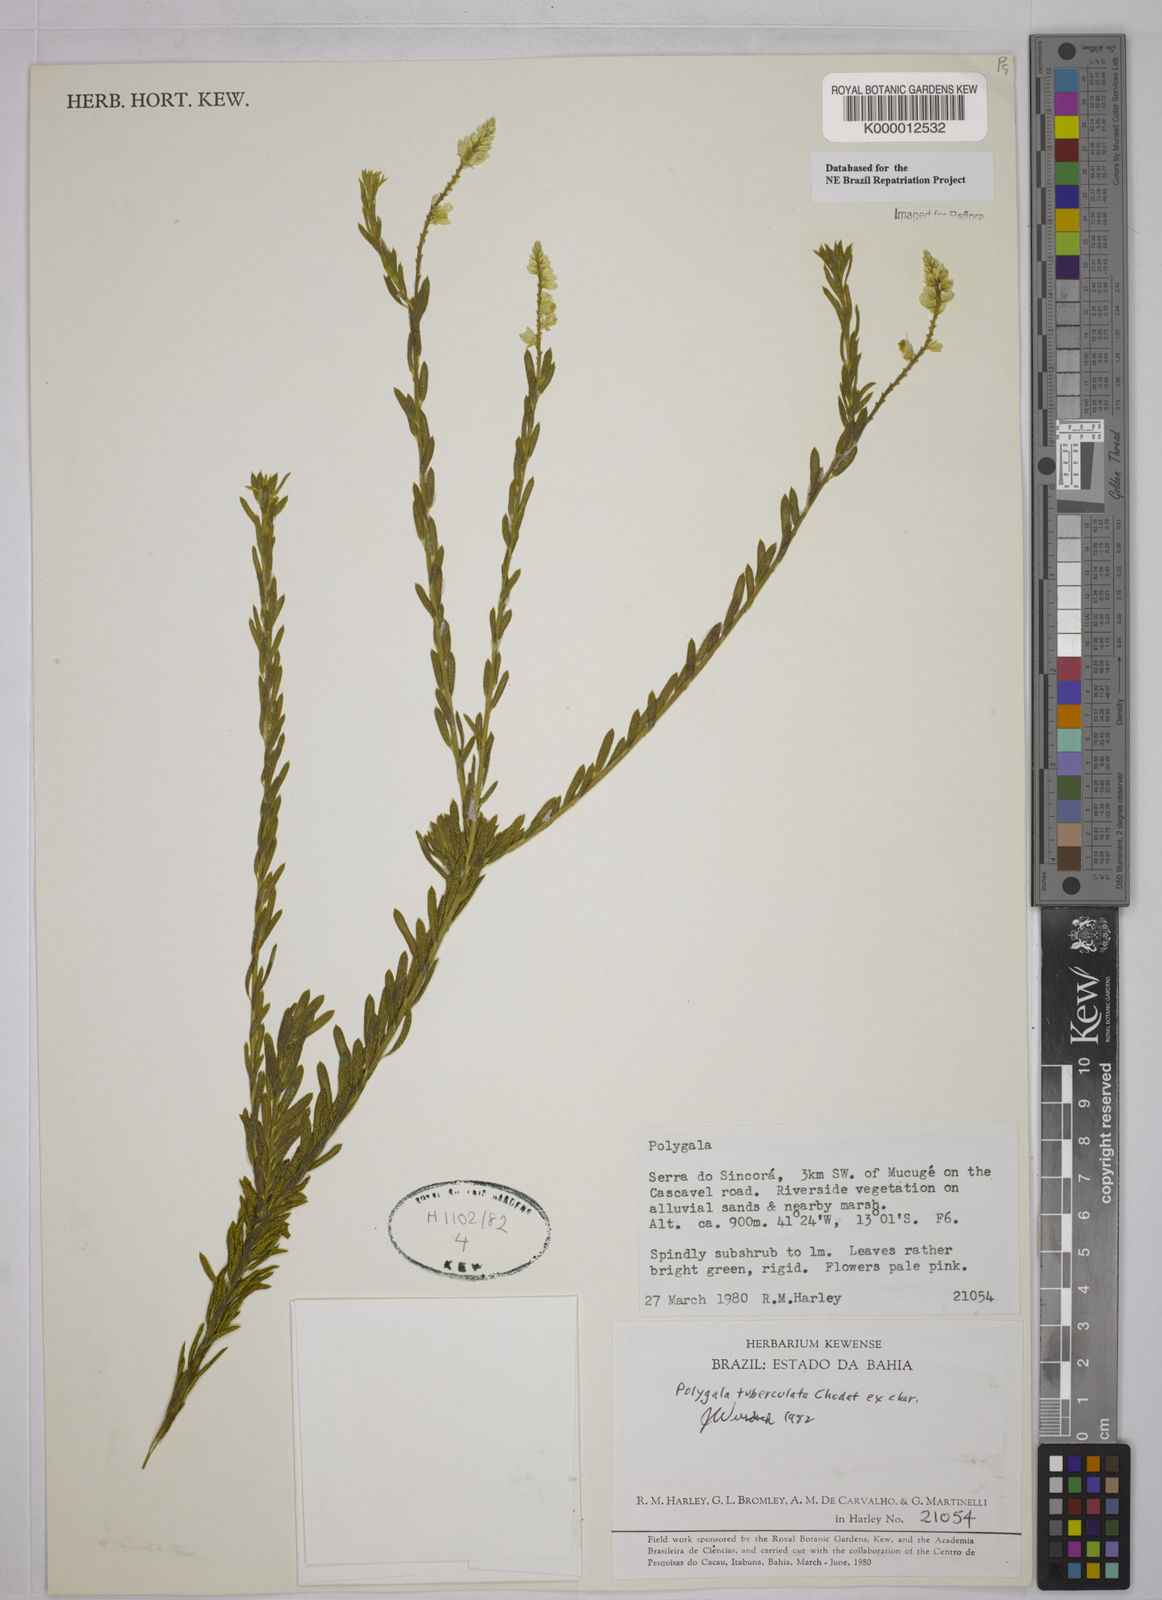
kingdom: Plantae
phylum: Tracheophyta
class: Magnoliopsida
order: Fabales
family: Polygalaceae
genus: Polygala
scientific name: Polygala tuberculata
